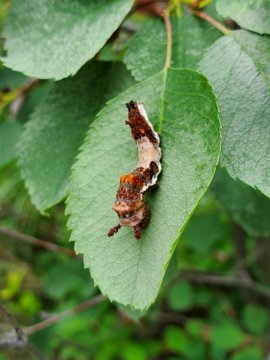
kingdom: Animalia
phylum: Arthropoda
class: Insecta
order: Lepidoptera
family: Nymphalidae
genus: Limenitis
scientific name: Limenitis lorquini
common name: Lorquin's Admiral
